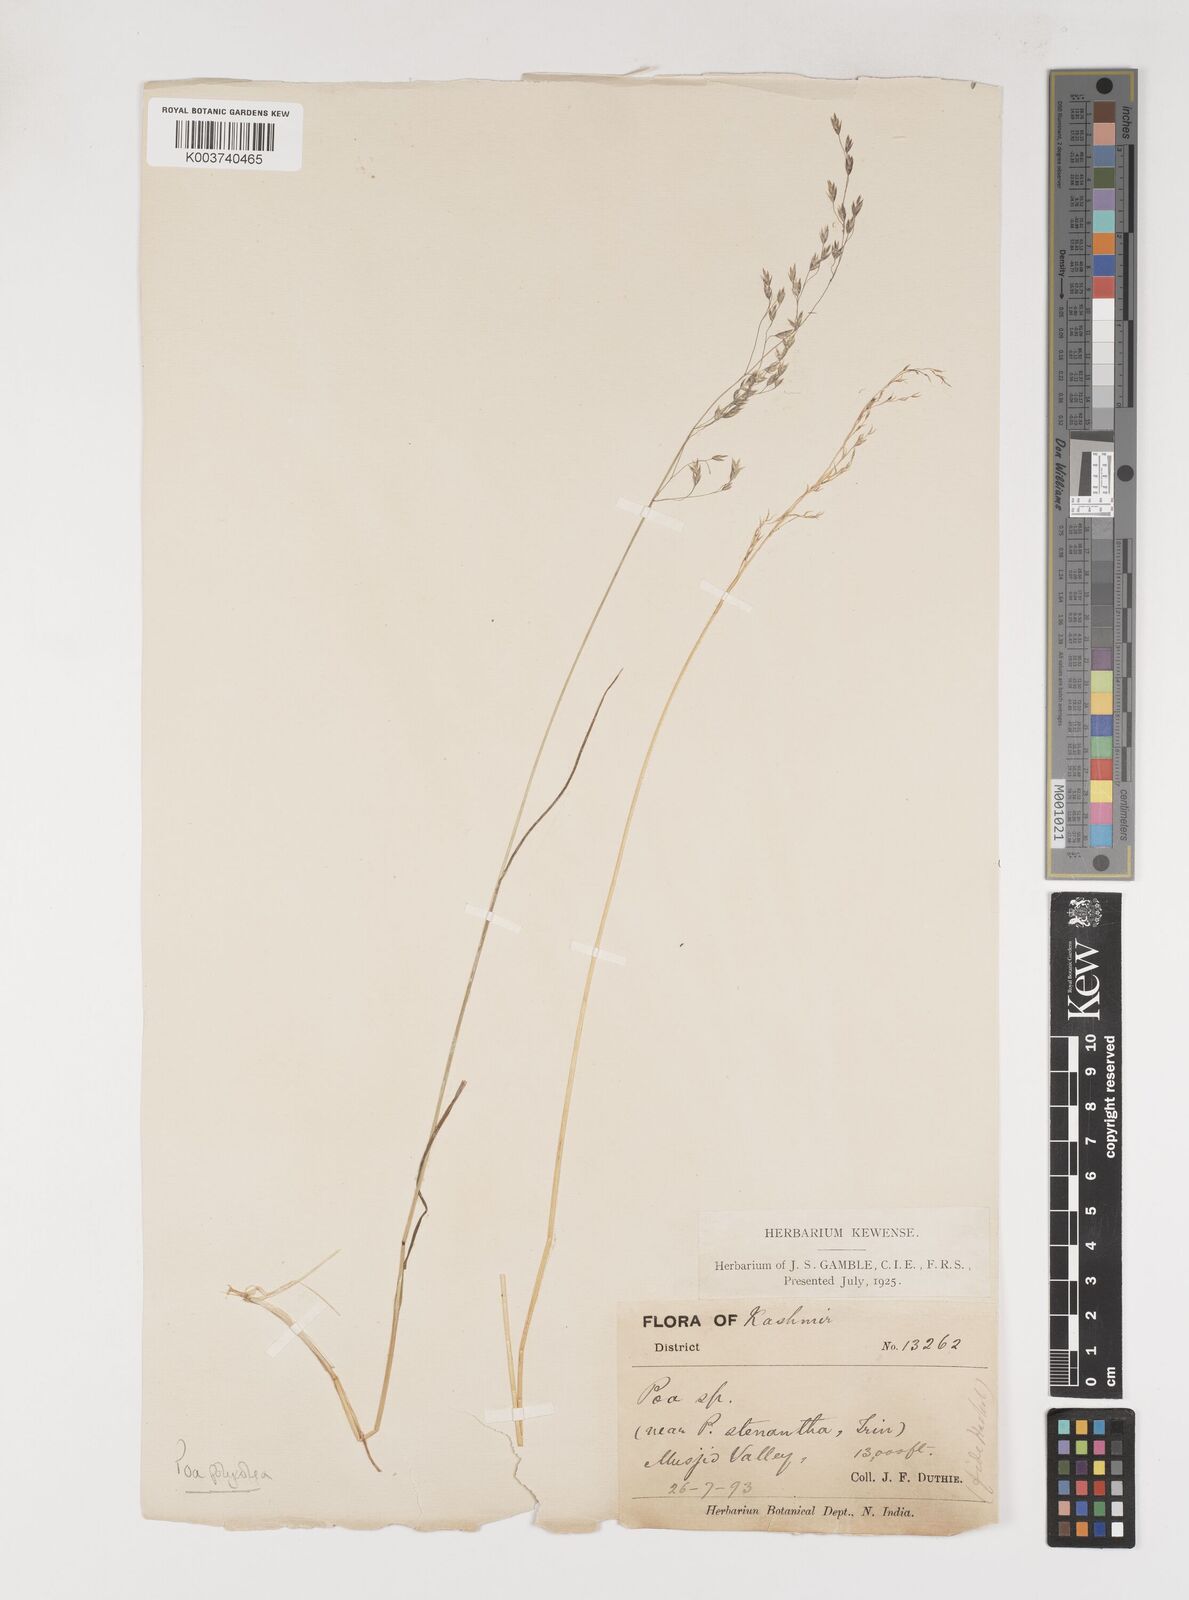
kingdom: Plantae
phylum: Tracheophyta
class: Liliopsida
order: Poales
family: Poaceae
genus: Poa
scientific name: Poa polycolea
